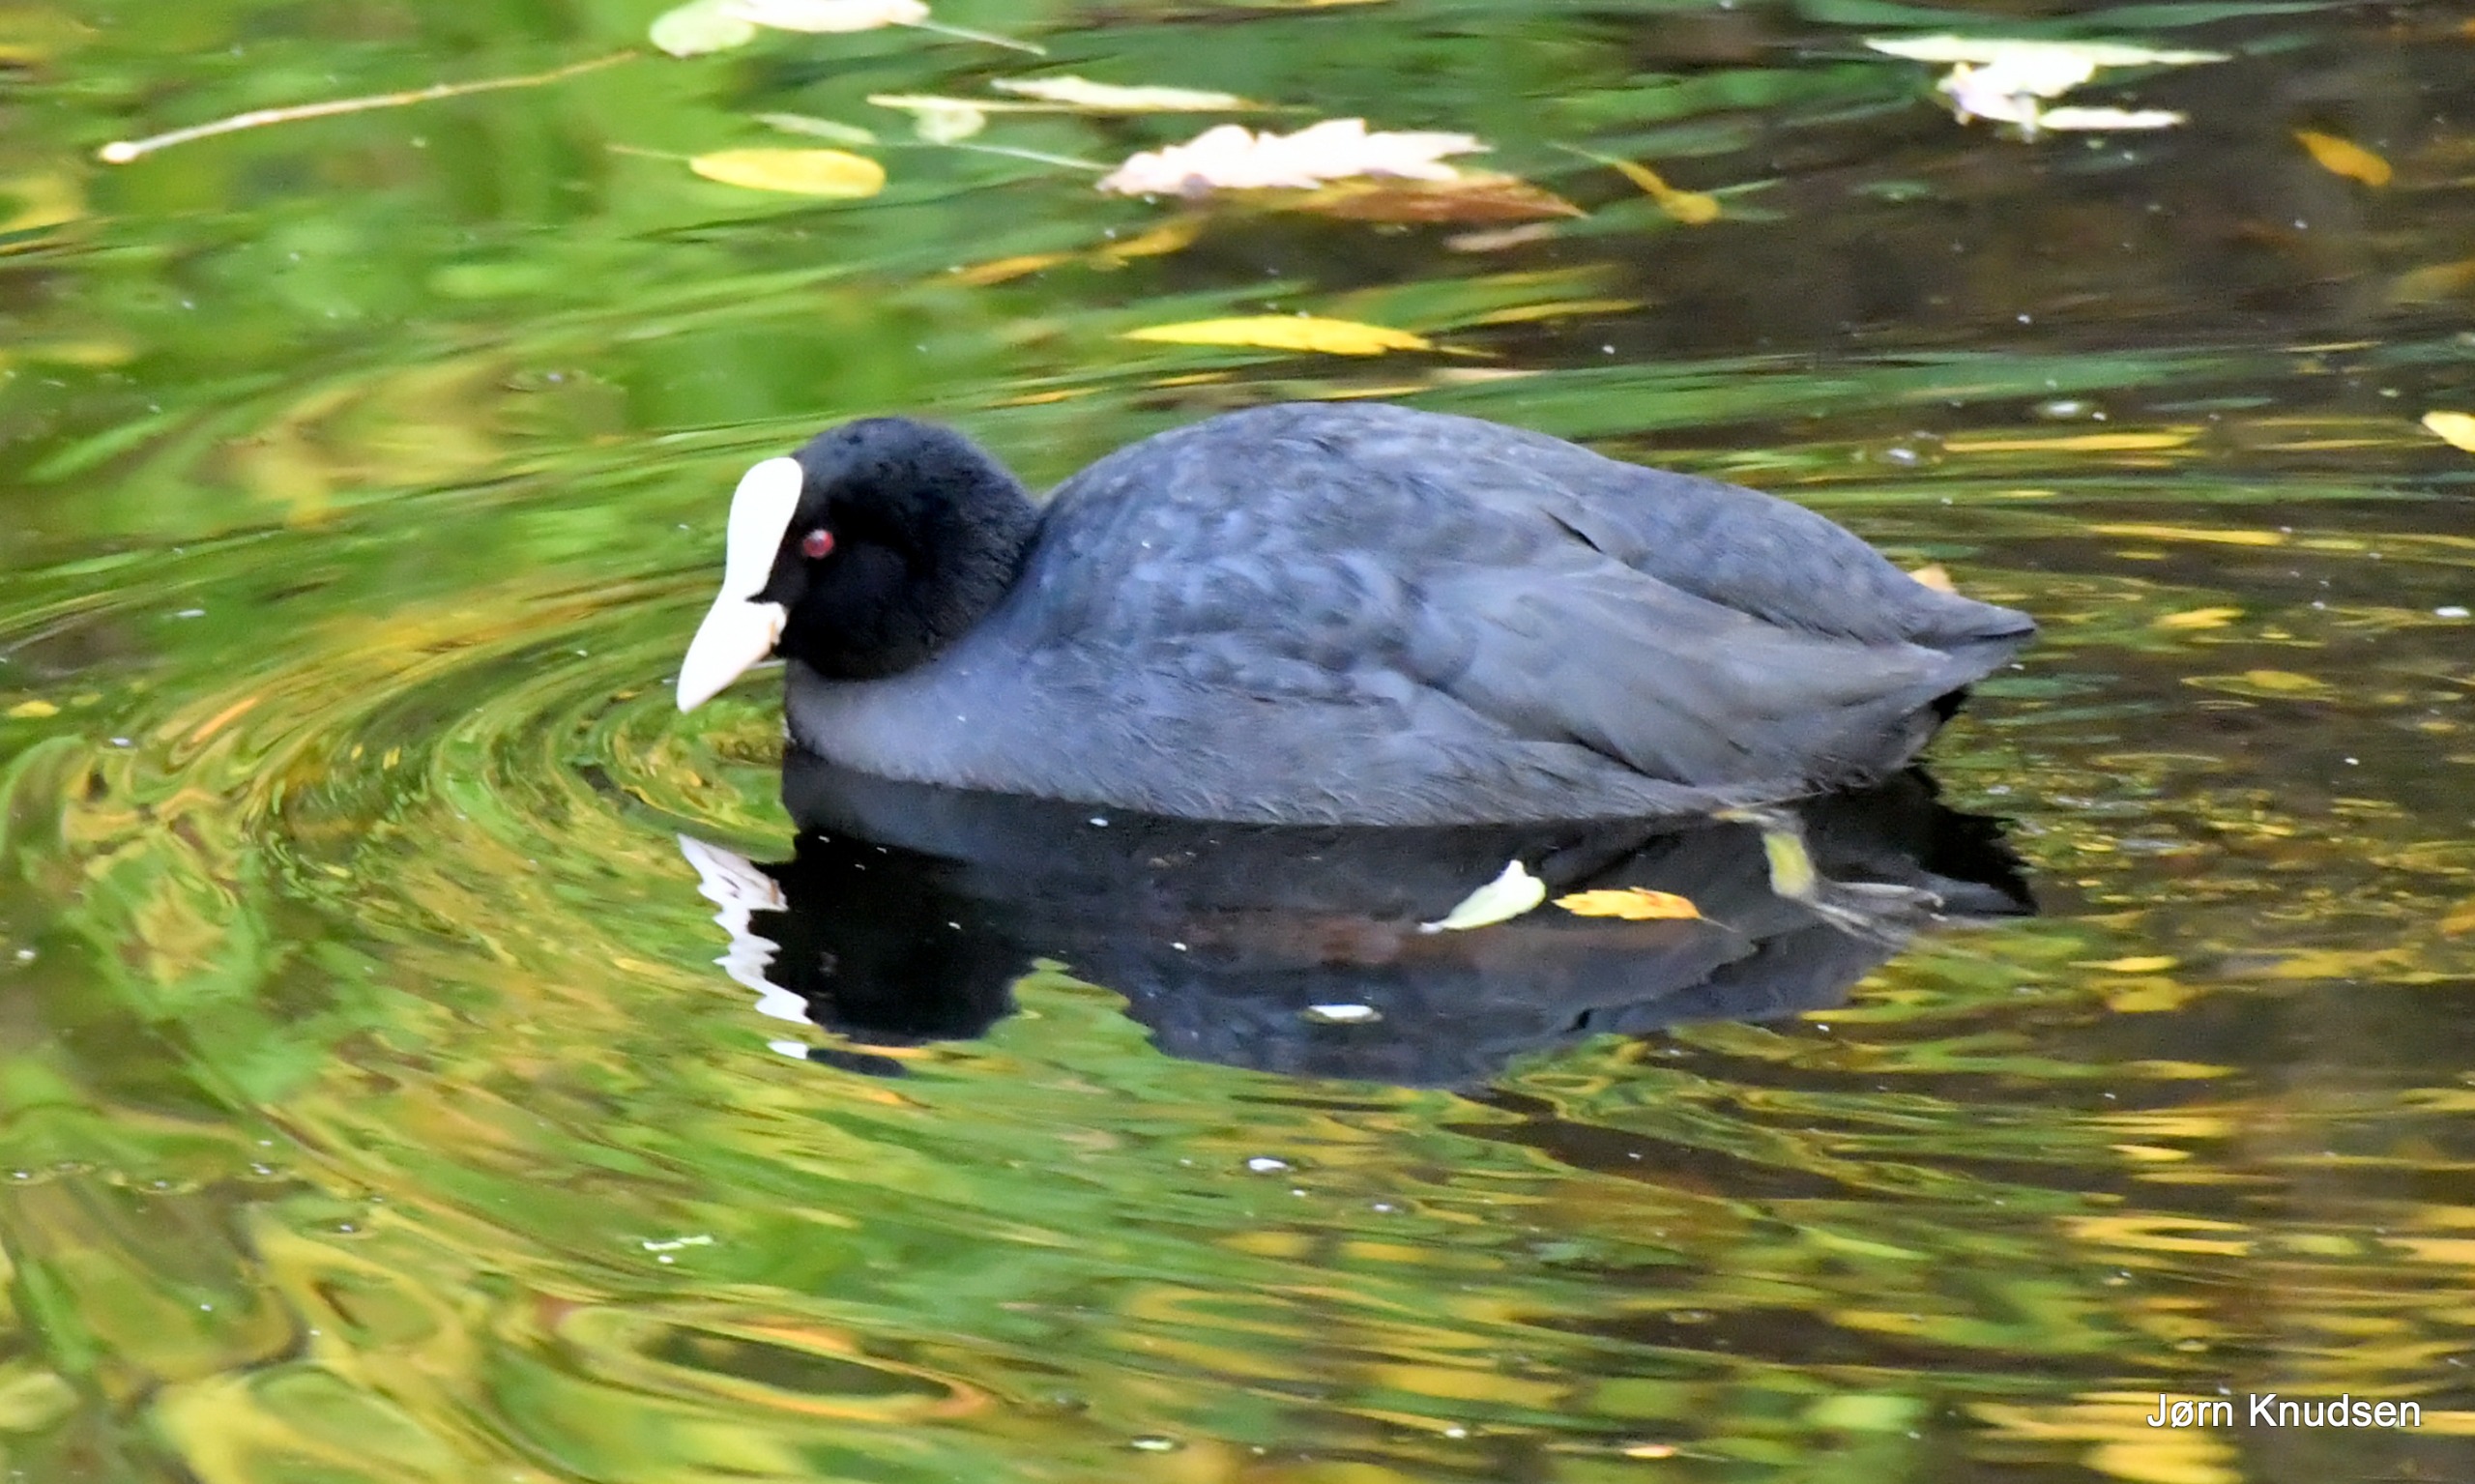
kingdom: Animalia
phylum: Chordata
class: Aves
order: Gruiformes
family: Rallidae
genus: Fulica
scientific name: Fulica atra
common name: Blishøne
